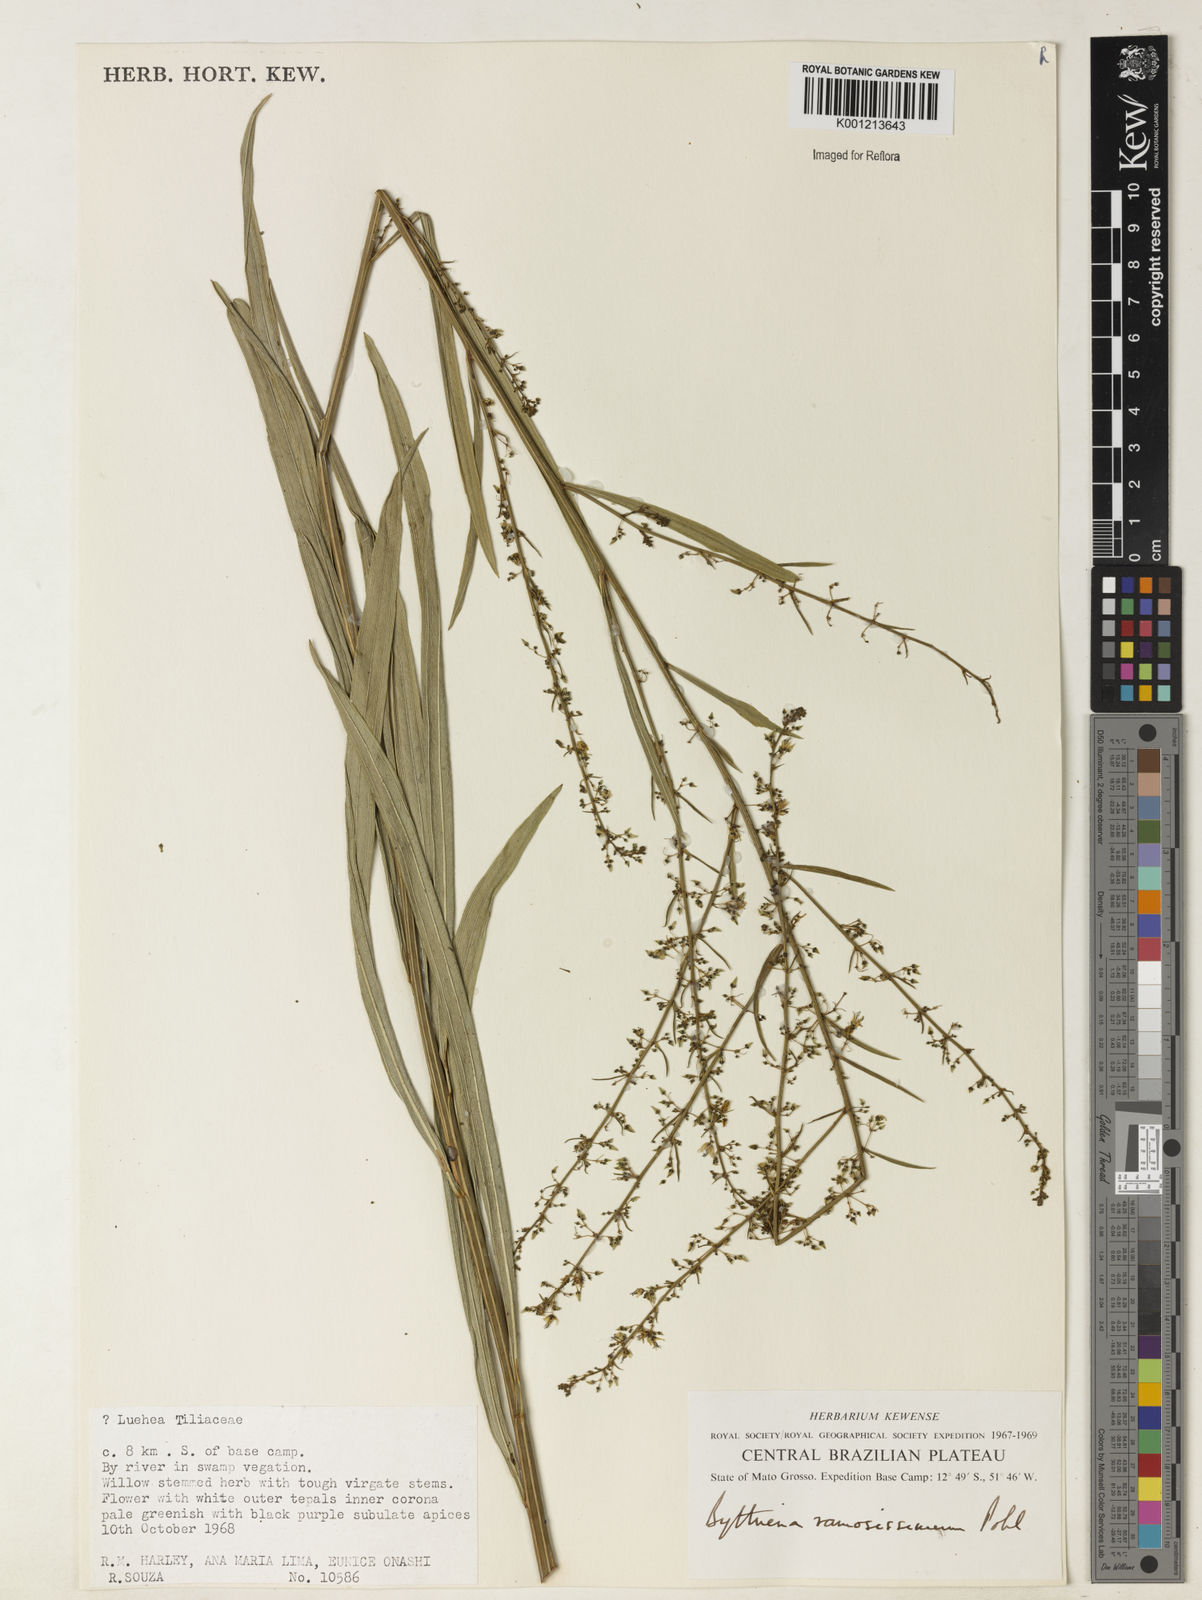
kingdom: Plantae
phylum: Tracheophyta
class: Magnoliopsida
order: Malvales
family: Malvaceae
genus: Byttneria
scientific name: Byttneria ramosissima
